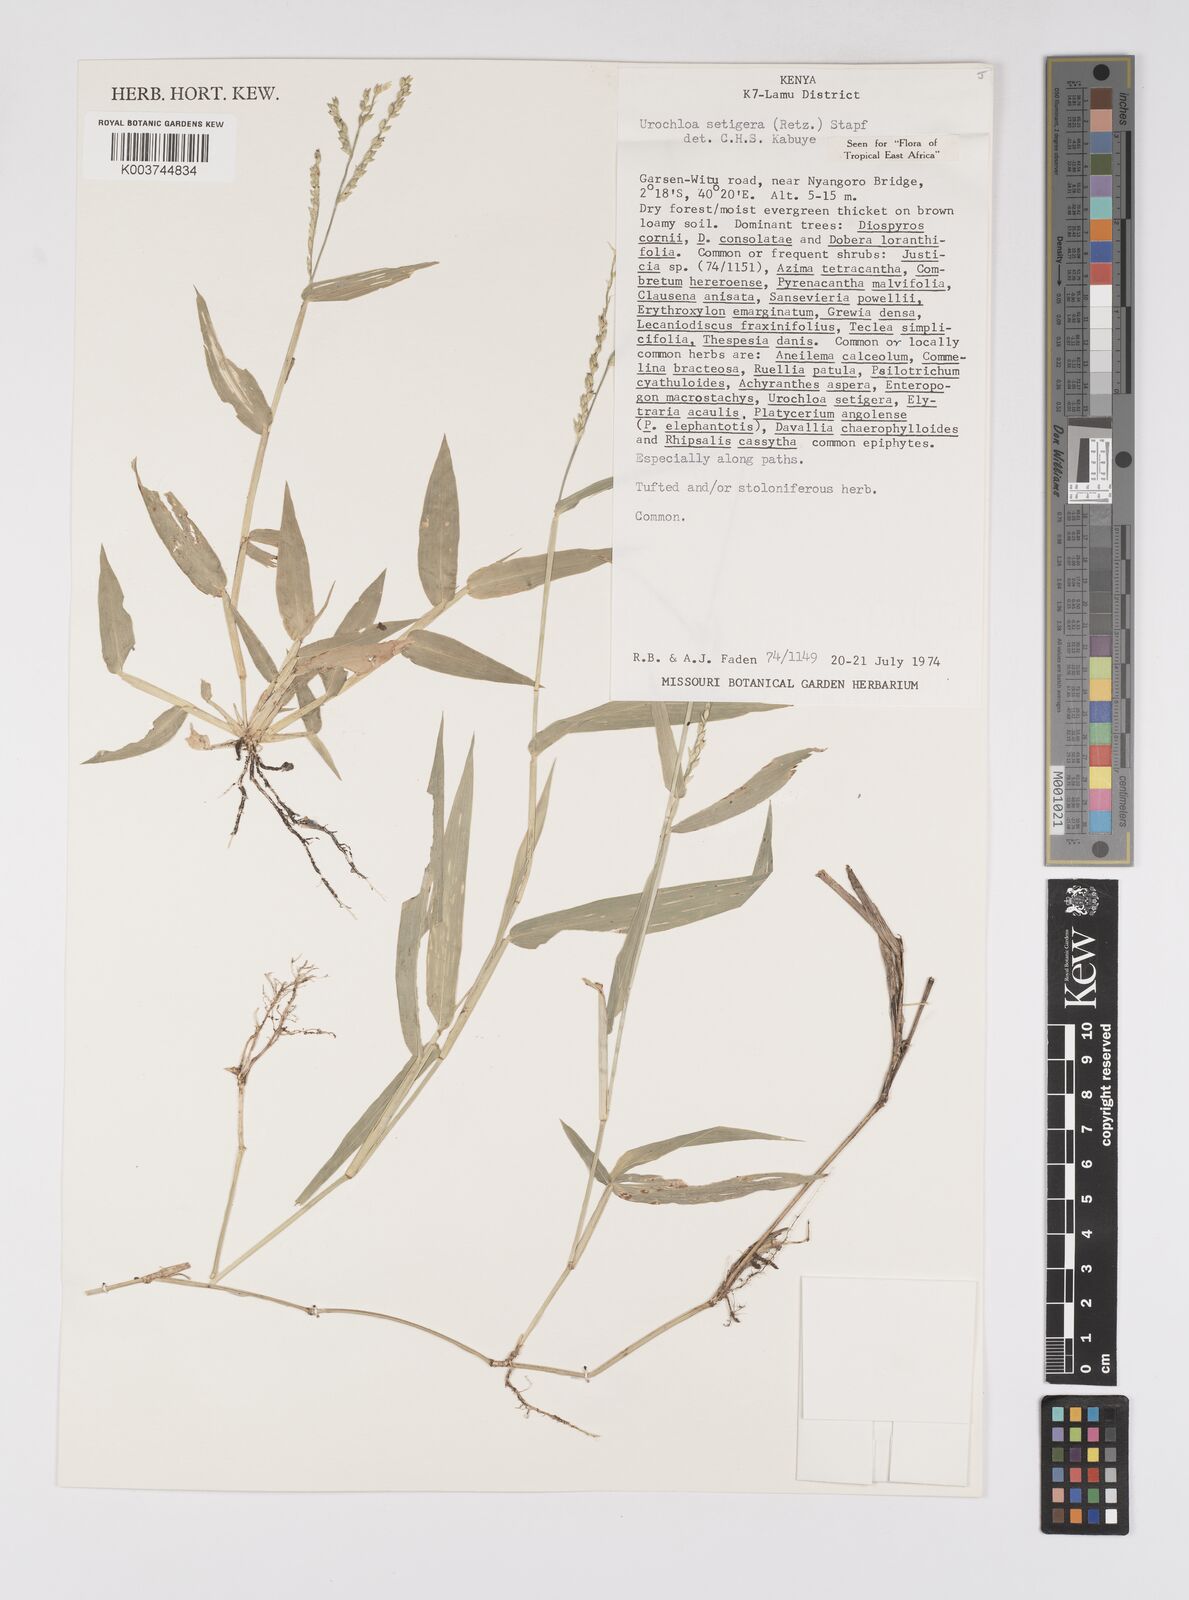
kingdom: Plantae
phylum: Tracheophyta
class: Liliopsida
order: Poales
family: Poaceae
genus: Urochloa
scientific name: Urochloa trichopodioides
